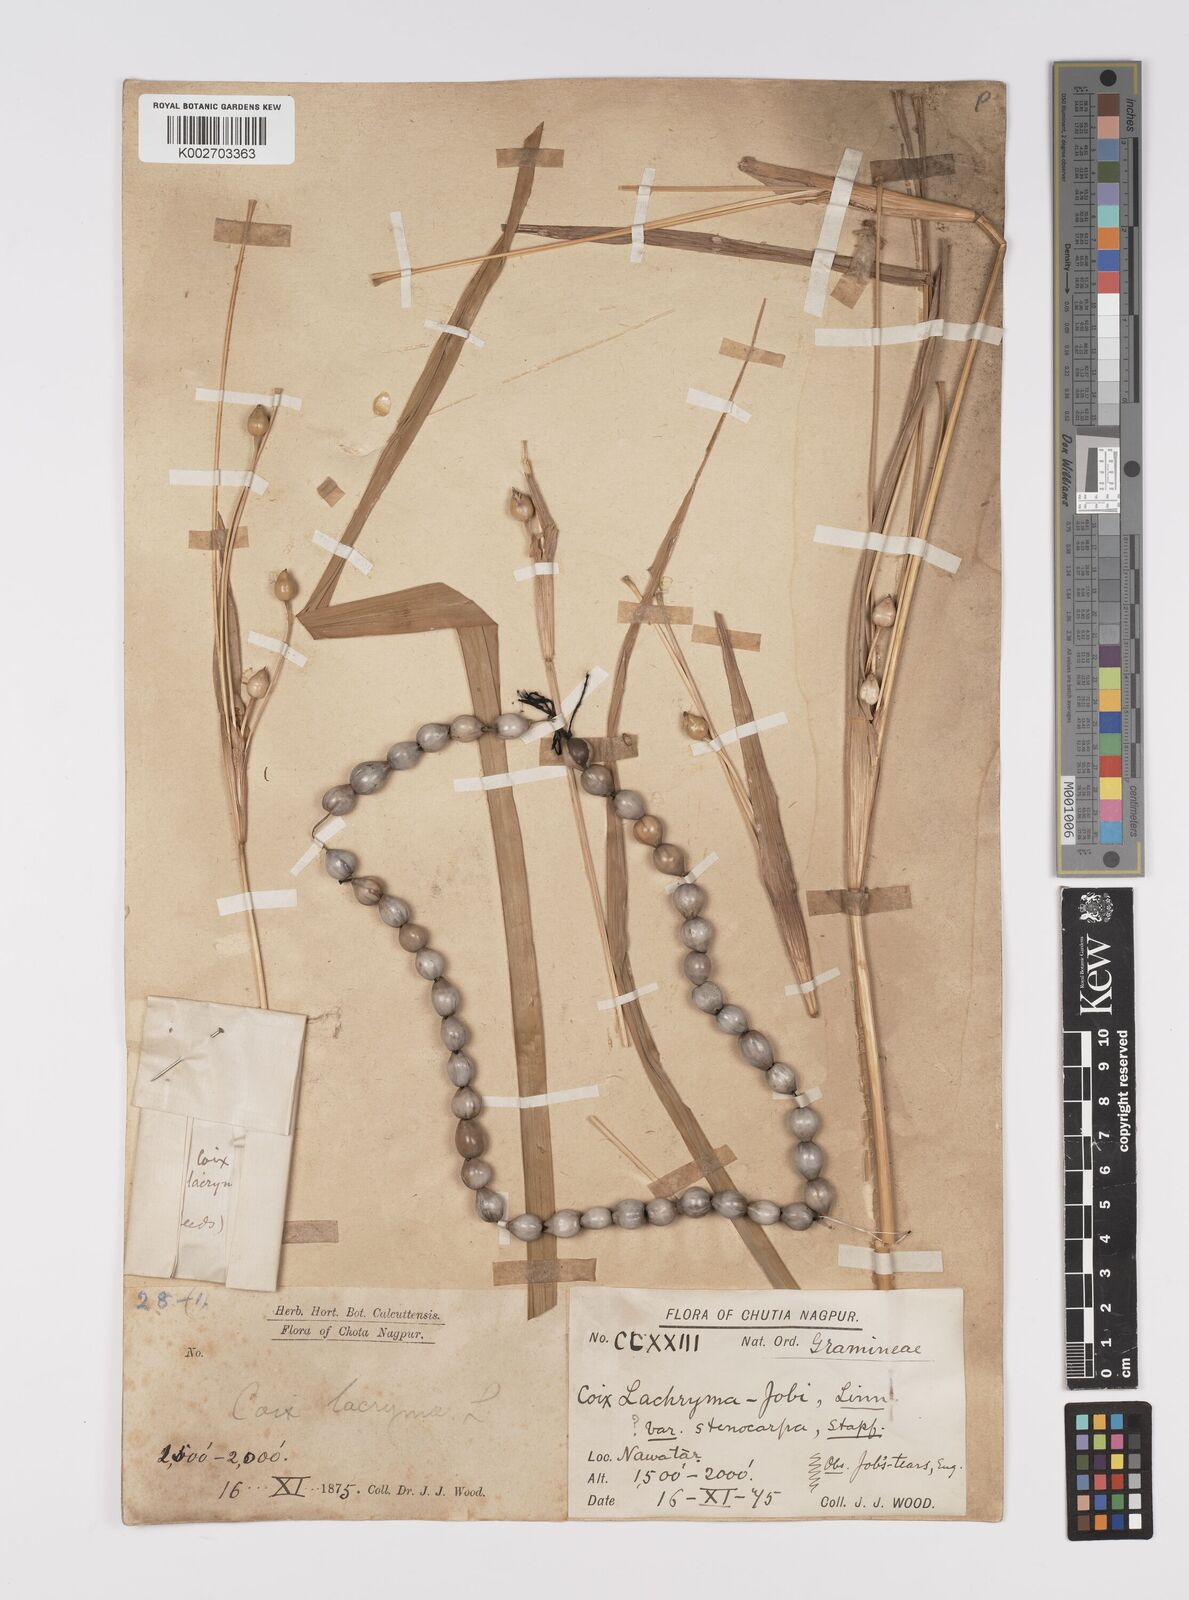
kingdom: Plantae
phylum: Tracheophyta
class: Liliopsida
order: Poales
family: Poaceae
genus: Coix
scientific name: Coix lacryma-jobi
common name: Job's tears
